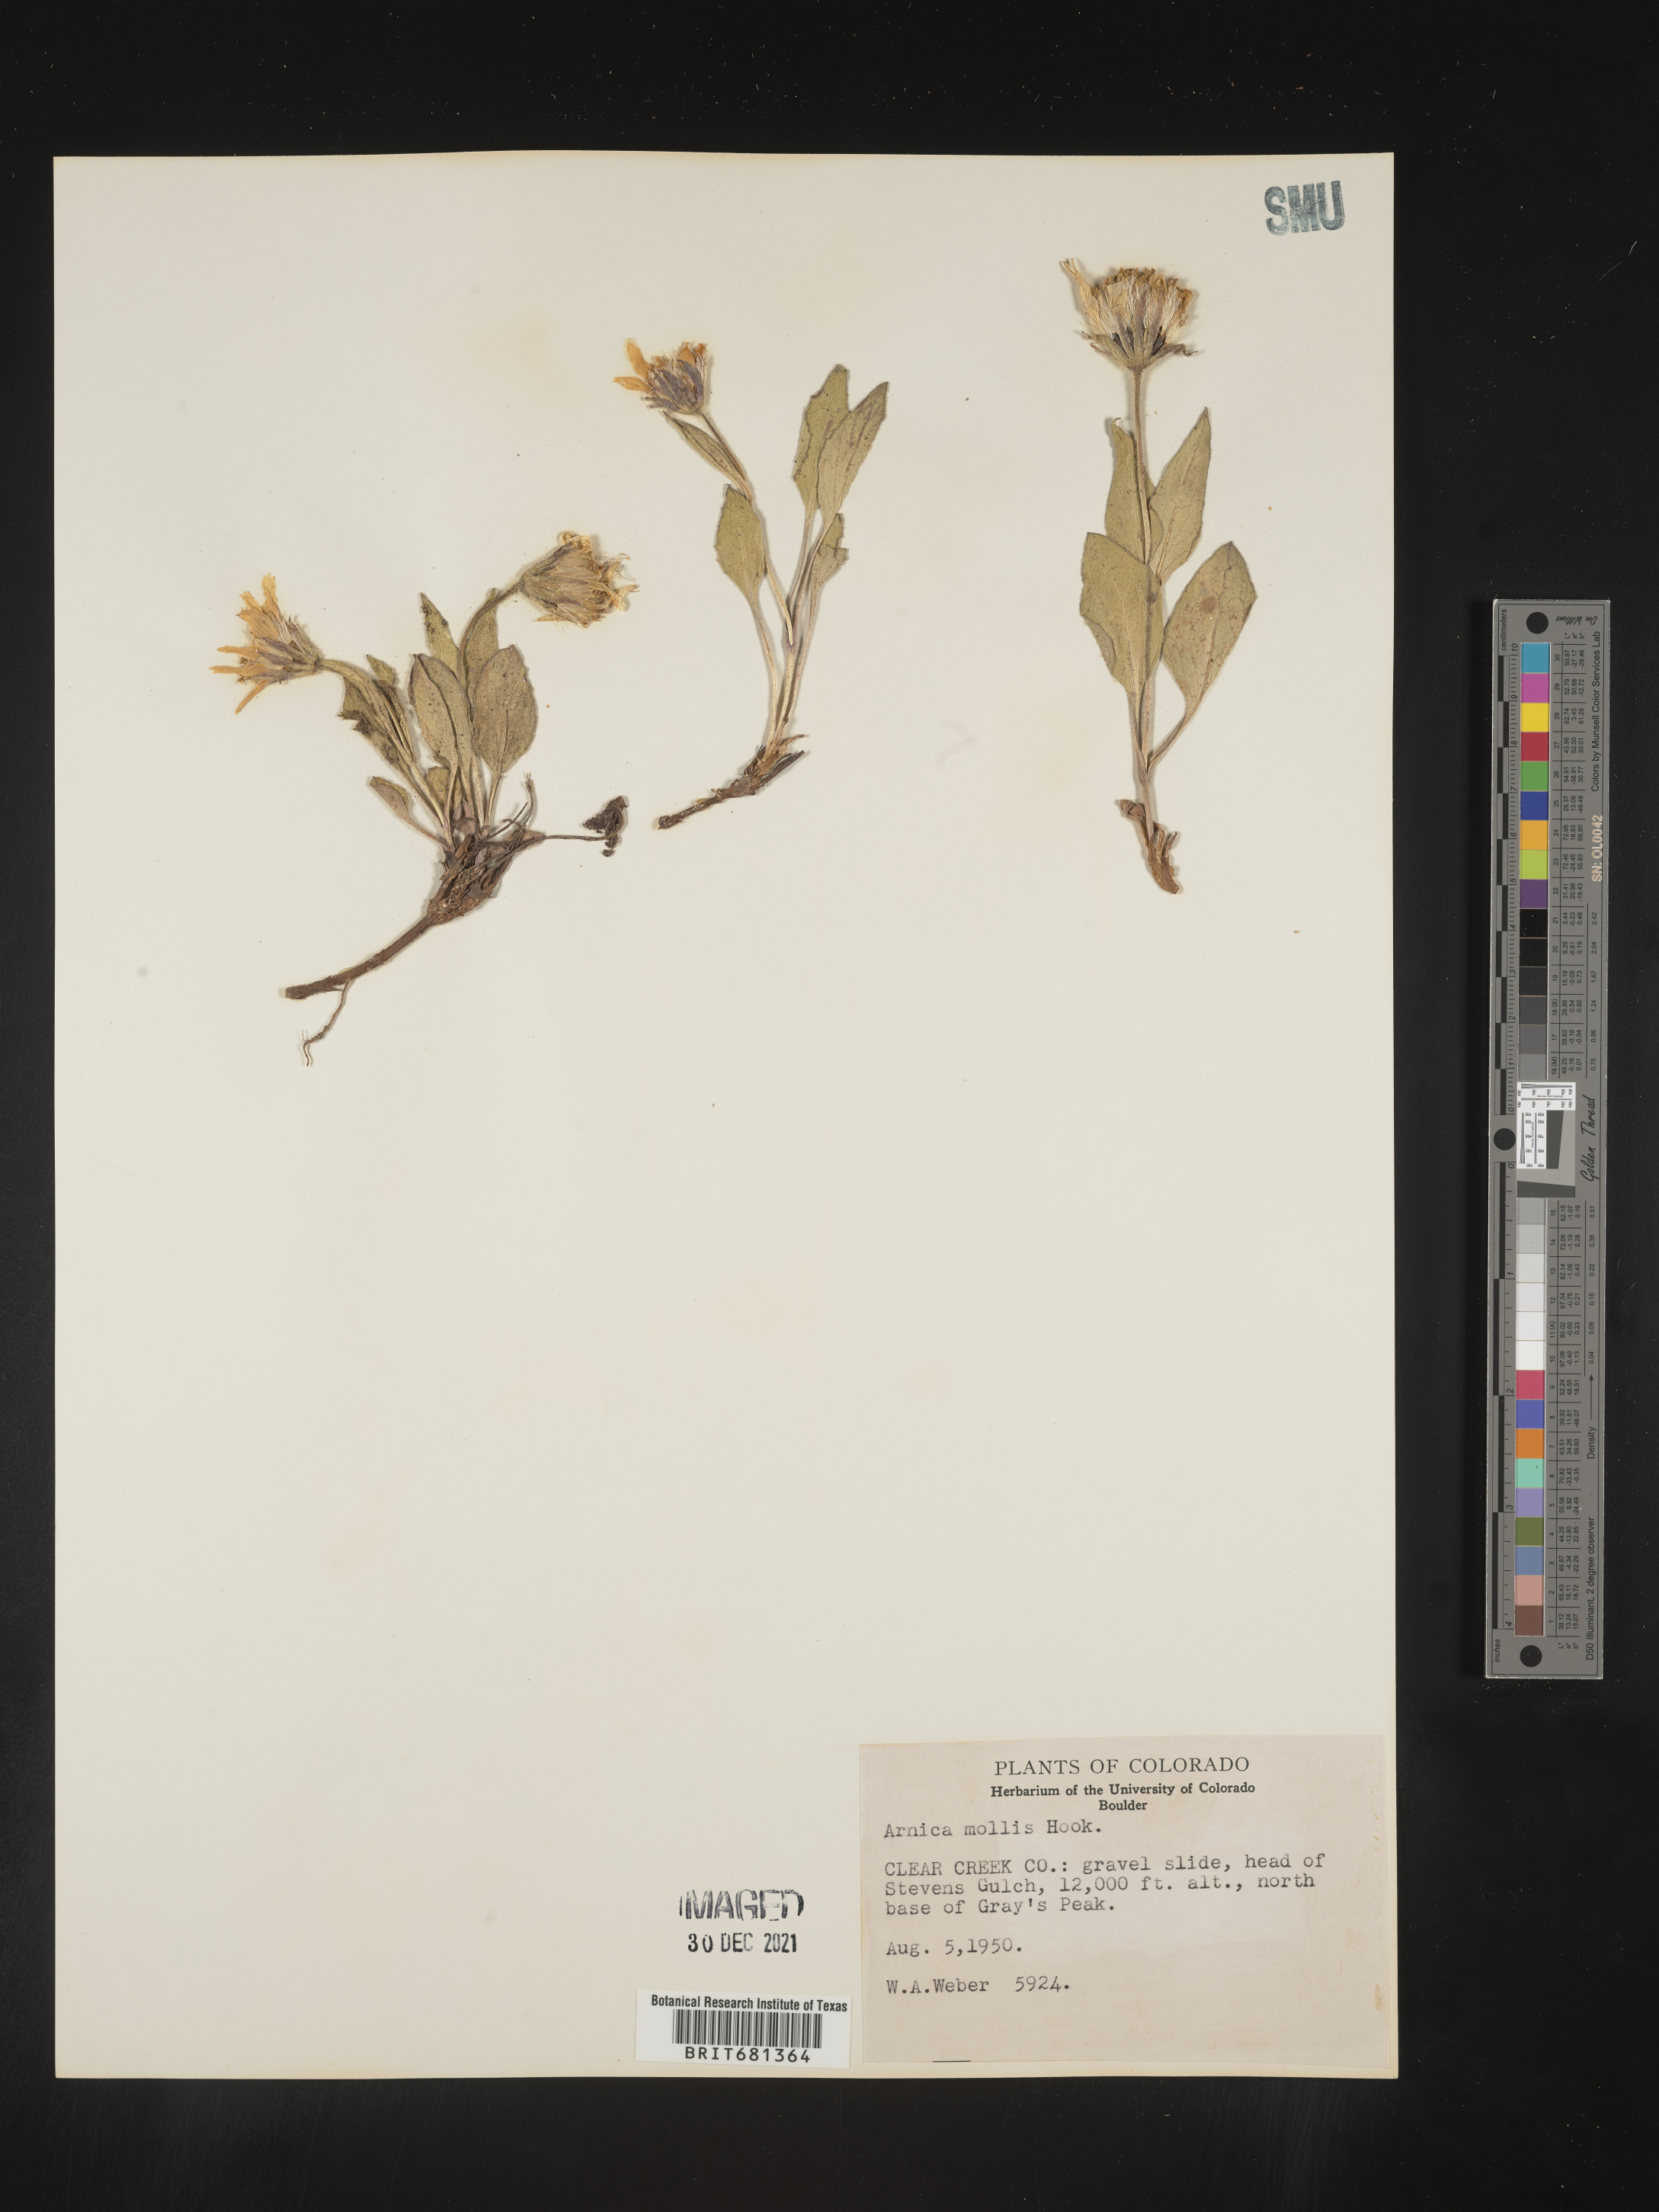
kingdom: Plantae
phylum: Tracheophyta
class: Magnoliopsida
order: Asterales
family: Asteraceae
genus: Arnica
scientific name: Arnica mollis
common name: Hairy arnica
